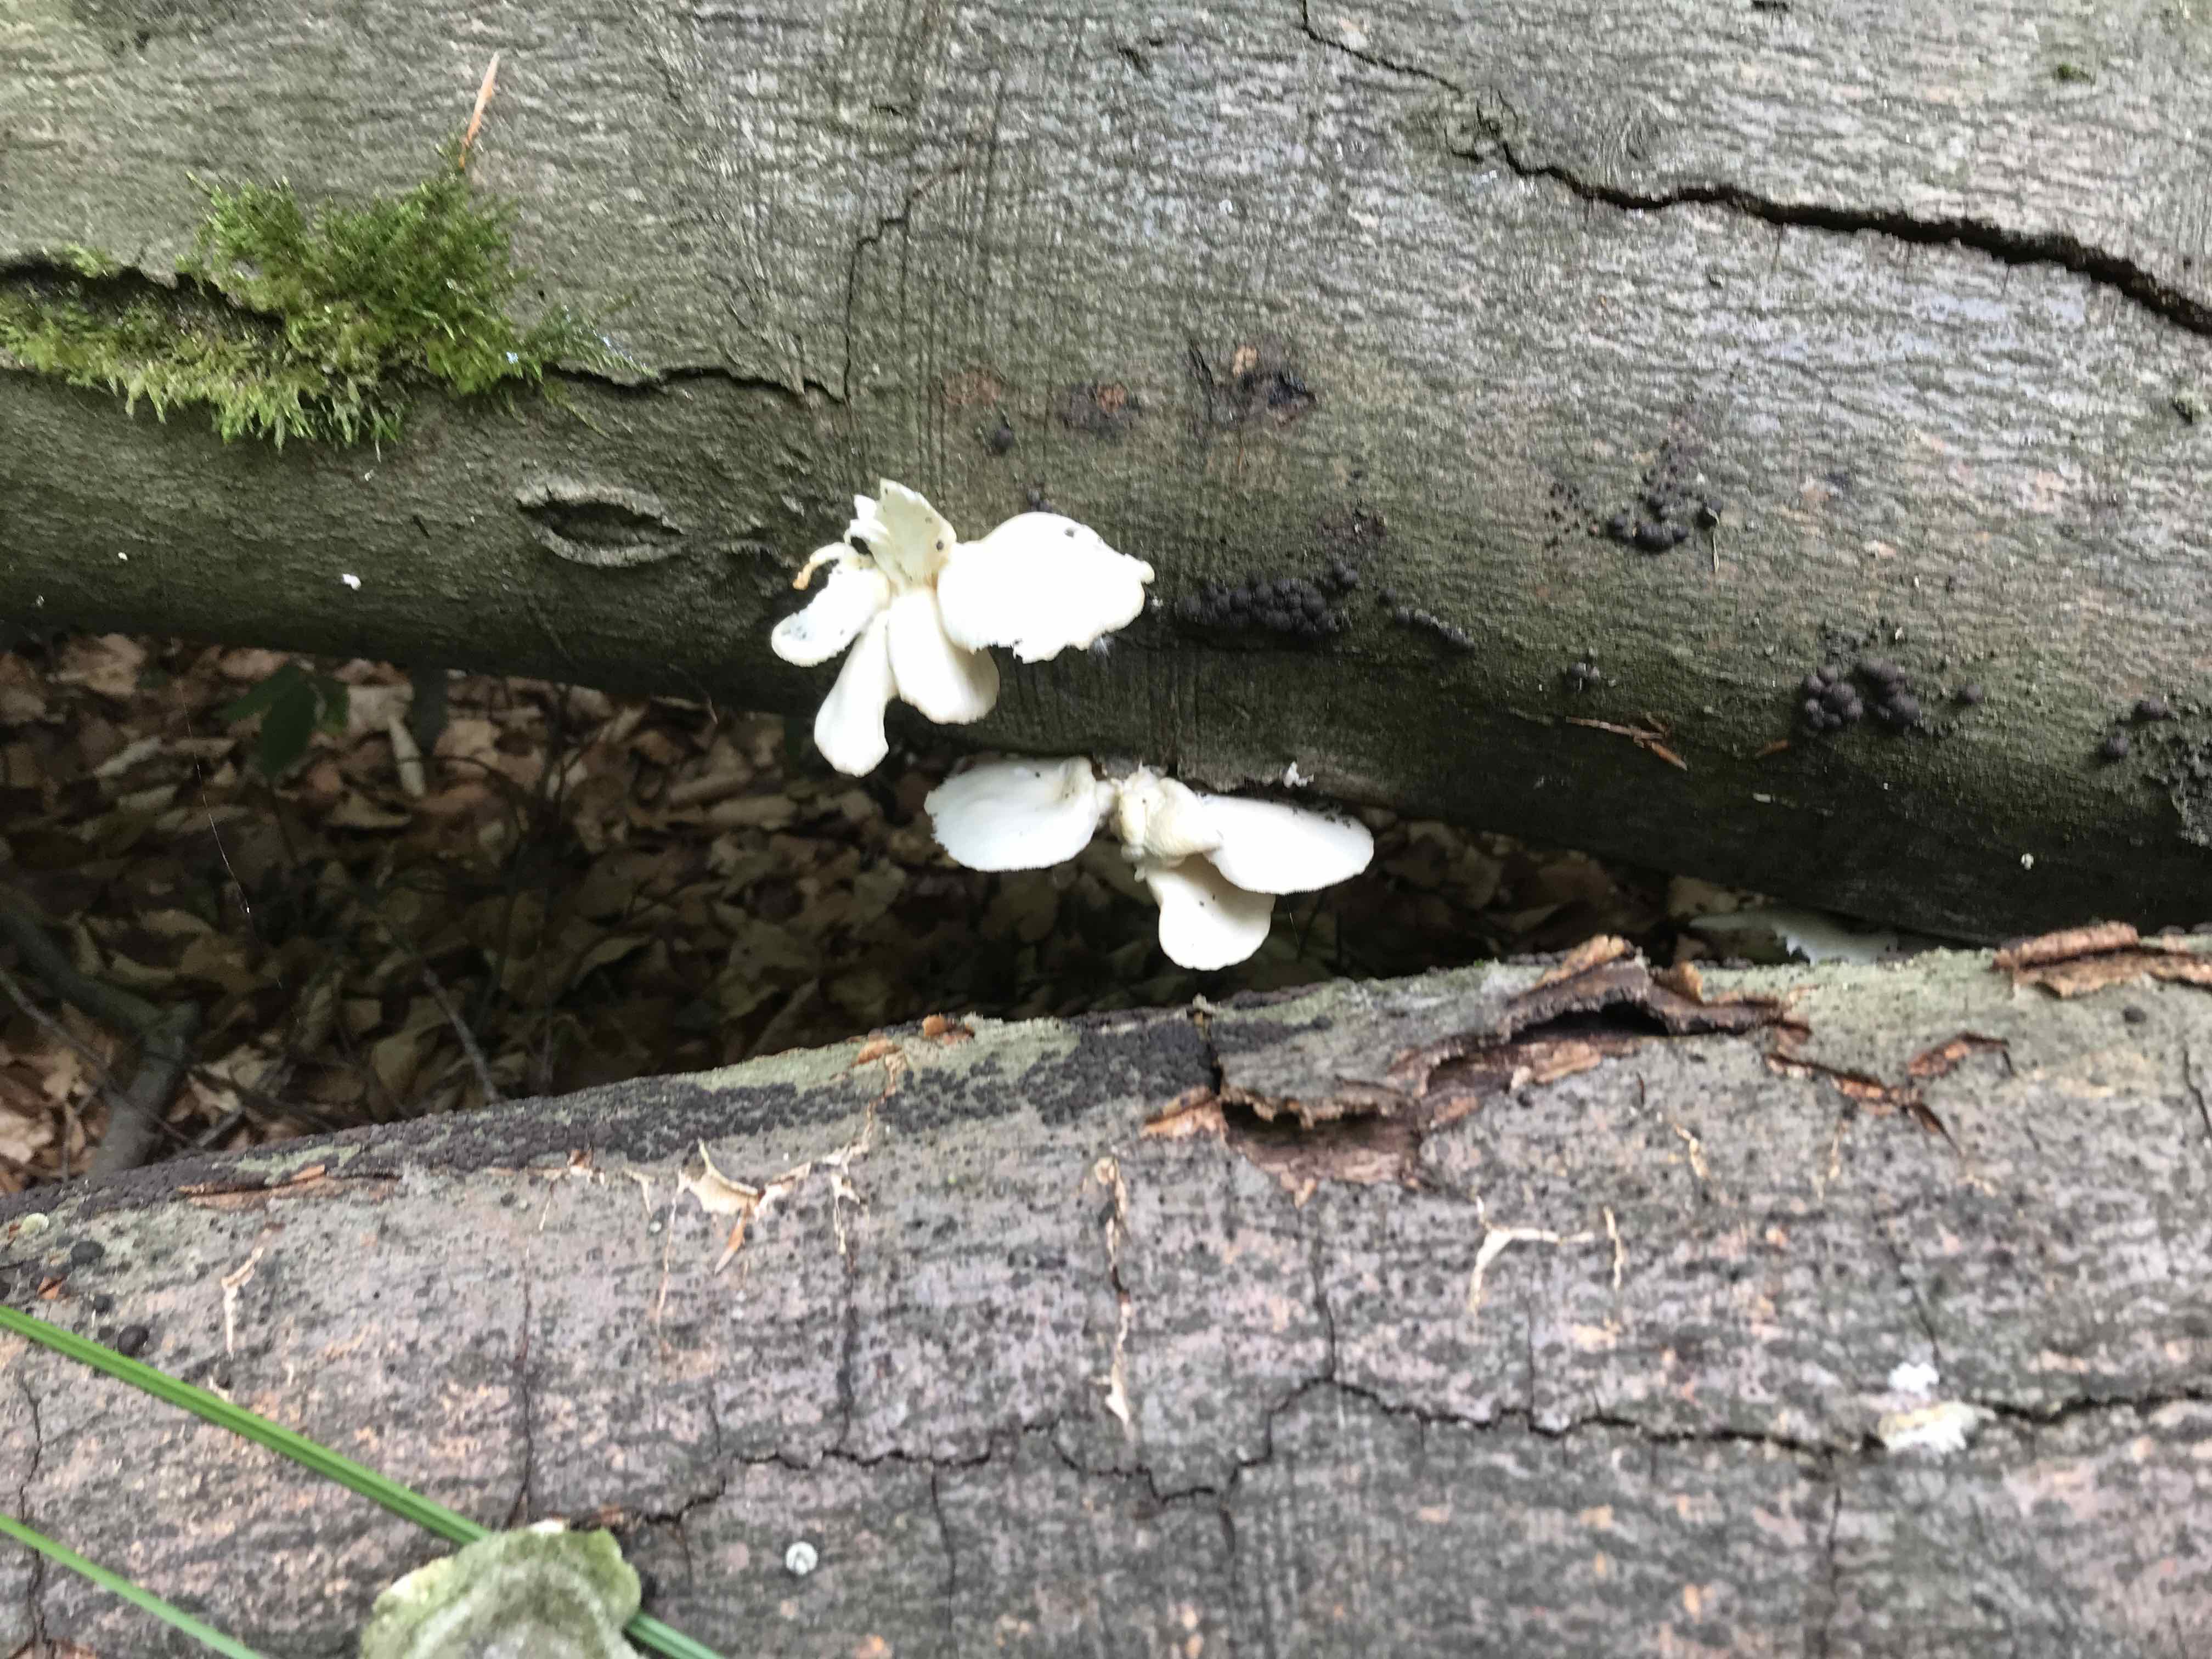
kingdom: Fungi
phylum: Basidiomycota
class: Agaricomycetes
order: Agaricales
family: Pleurotaceae
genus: Pleurotus
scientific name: Pleurotus pulmonarius
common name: sommer-østershat
